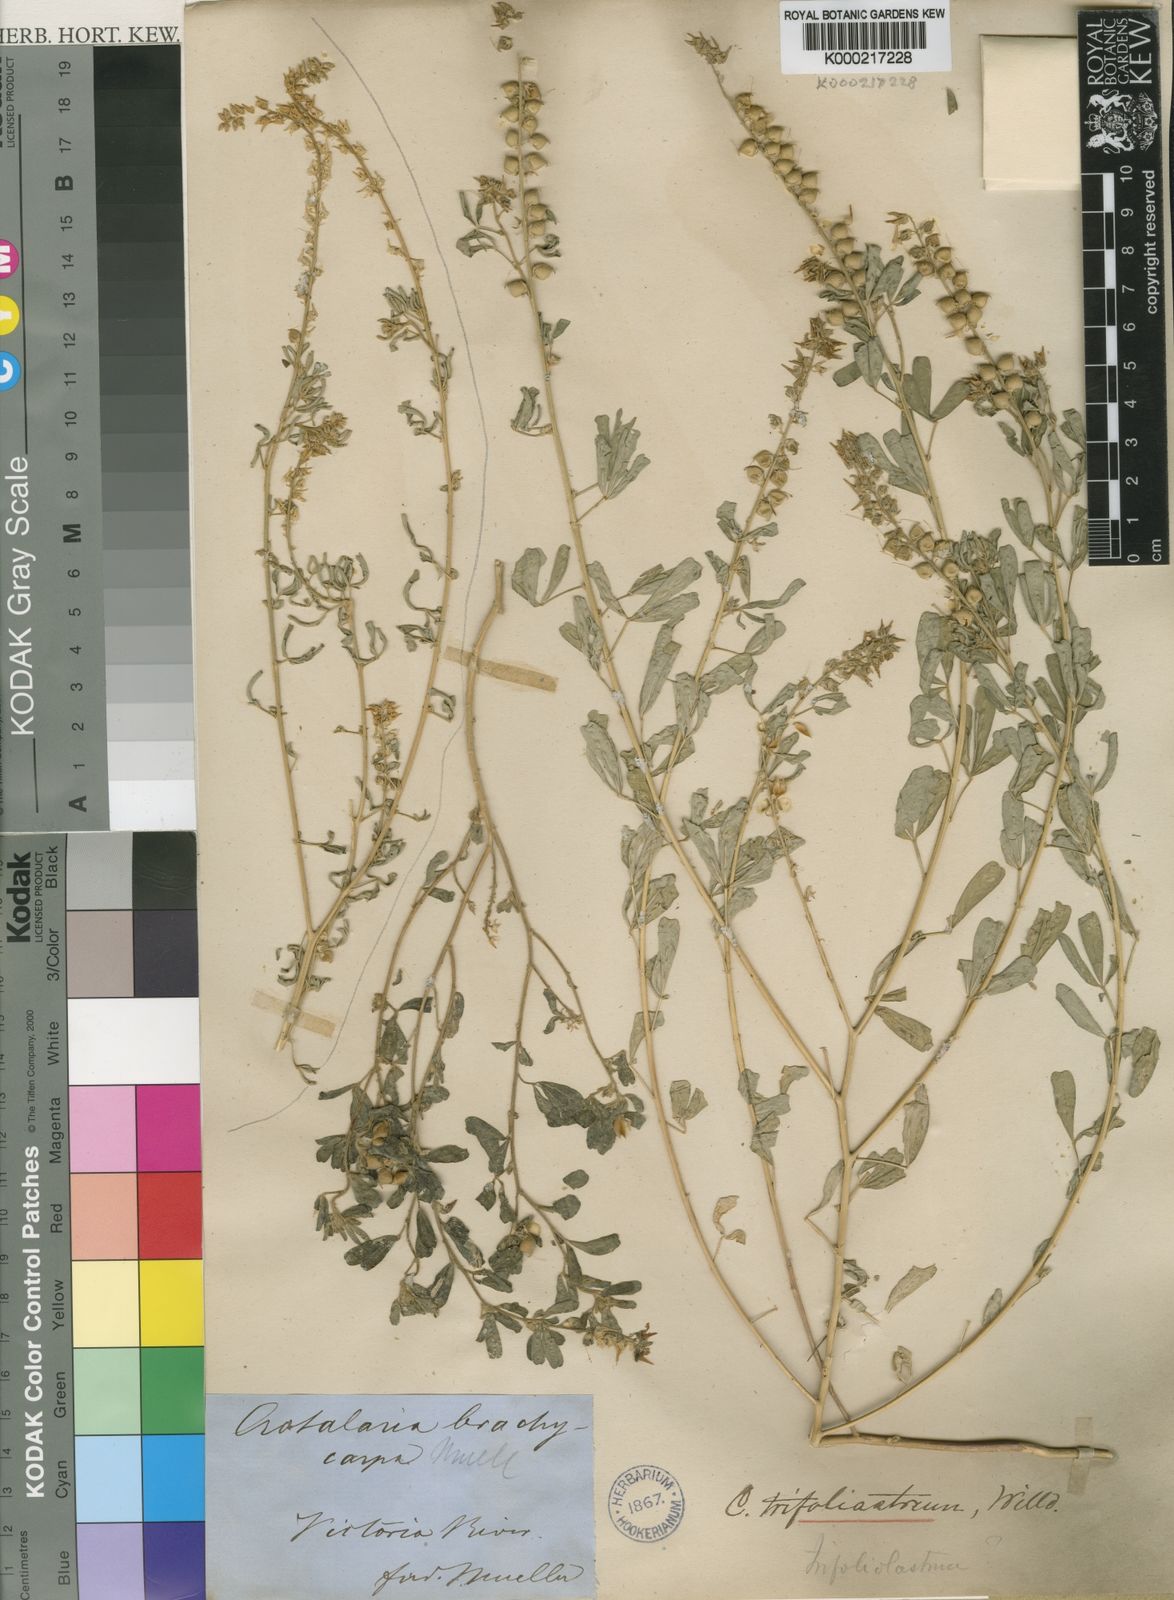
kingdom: Plantae
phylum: Tracheophyta
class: Magnoliopsida
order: Fabales
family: Fabaceae
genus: Crotalaria
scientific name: Crotalaria trifoliastrum
